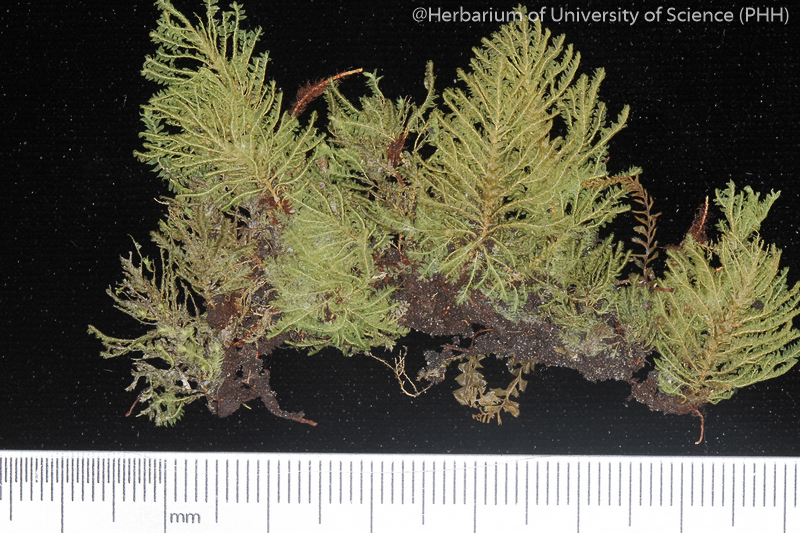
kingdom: Plantae
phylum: Bryophyta
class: Bryopsida
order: Hypopterygiales
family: Hypopterygiaceae
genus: Hypopterygium
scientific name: Hypopterygium flavolimbatum
